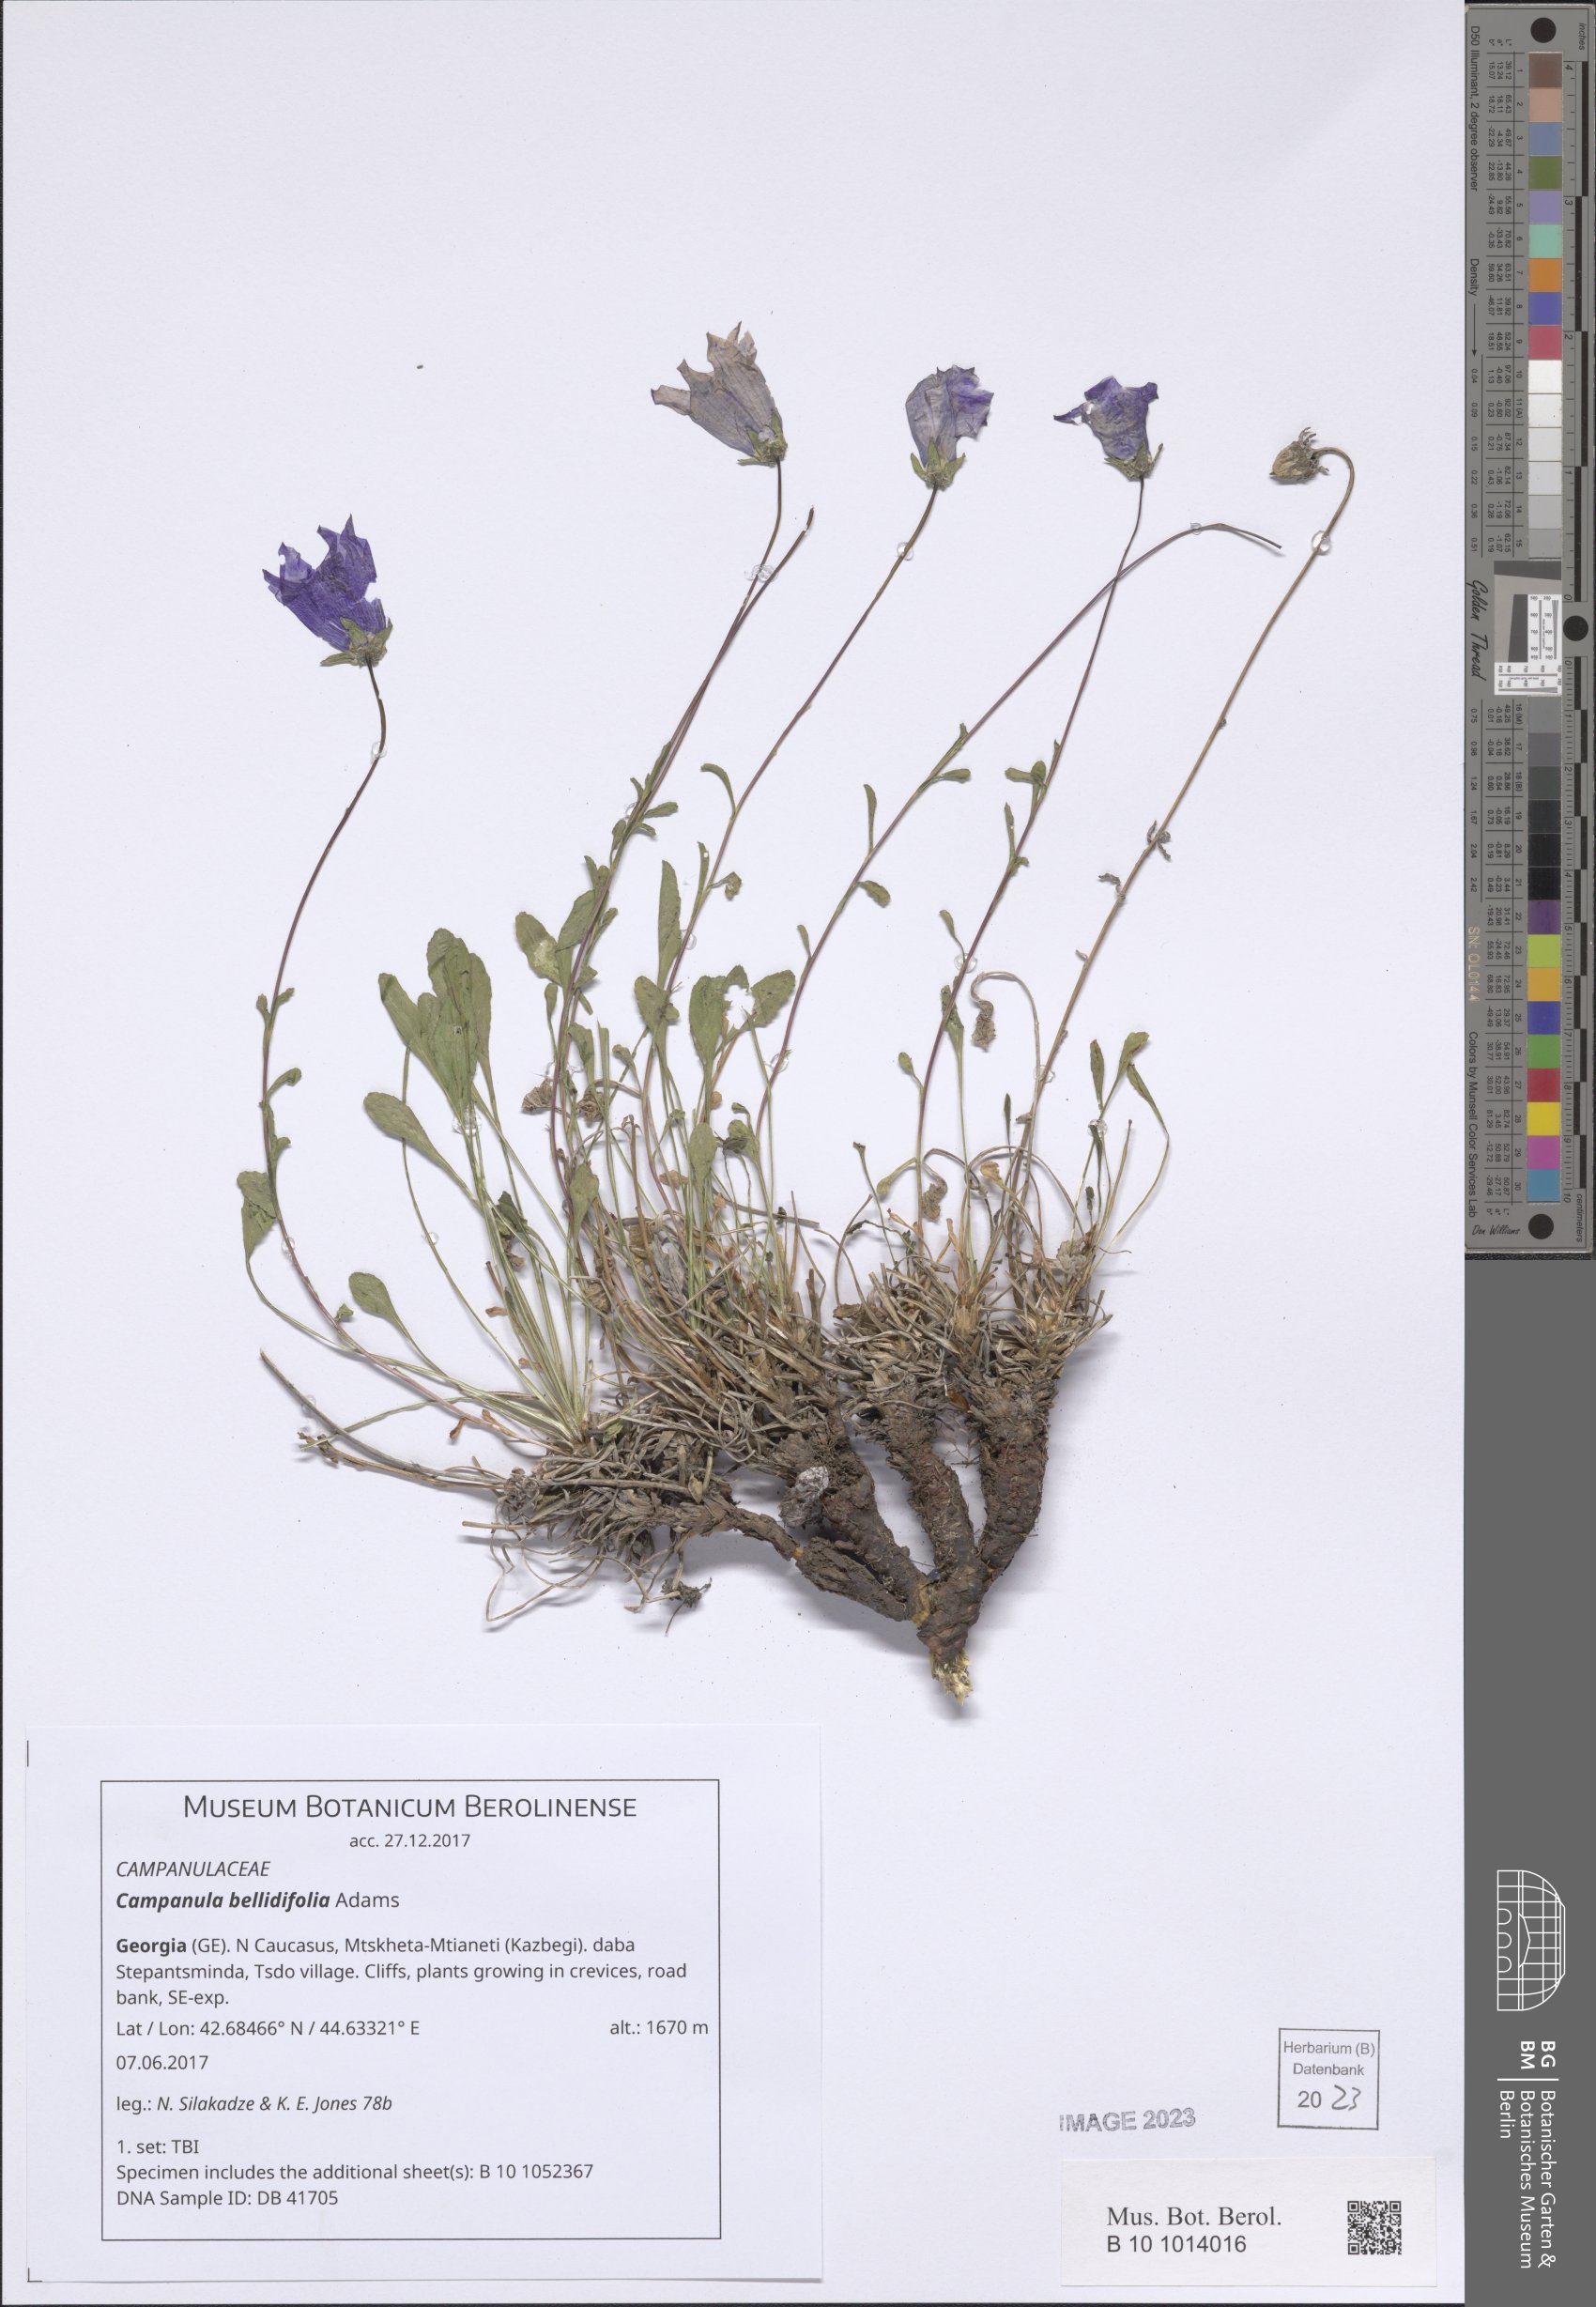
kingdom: Plantae
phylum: Tracheophyta
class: Magnoliopsida
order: Asterales
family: Campanulaceae
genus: Campanula
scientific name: Campanula bellidifolia
